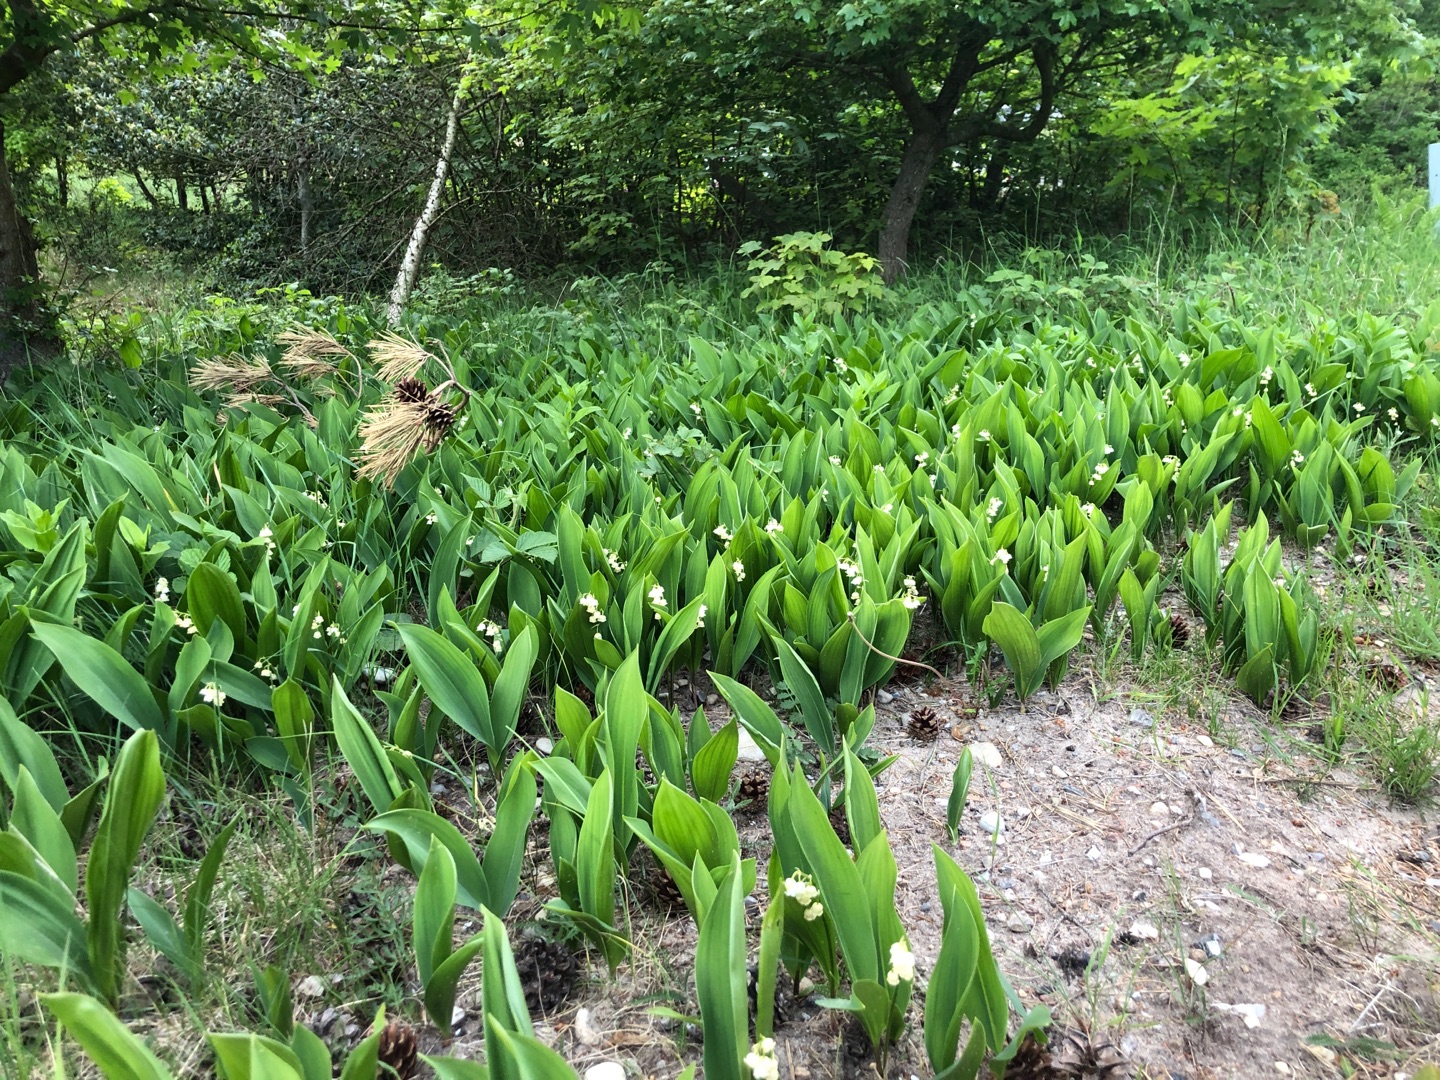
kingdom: Plantae
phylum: Tracheophyta
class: Liliopsida
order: Asparagales
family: Asparagaceae
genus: Convallaria
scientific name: Convallaria majalis
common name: Liljekonval
